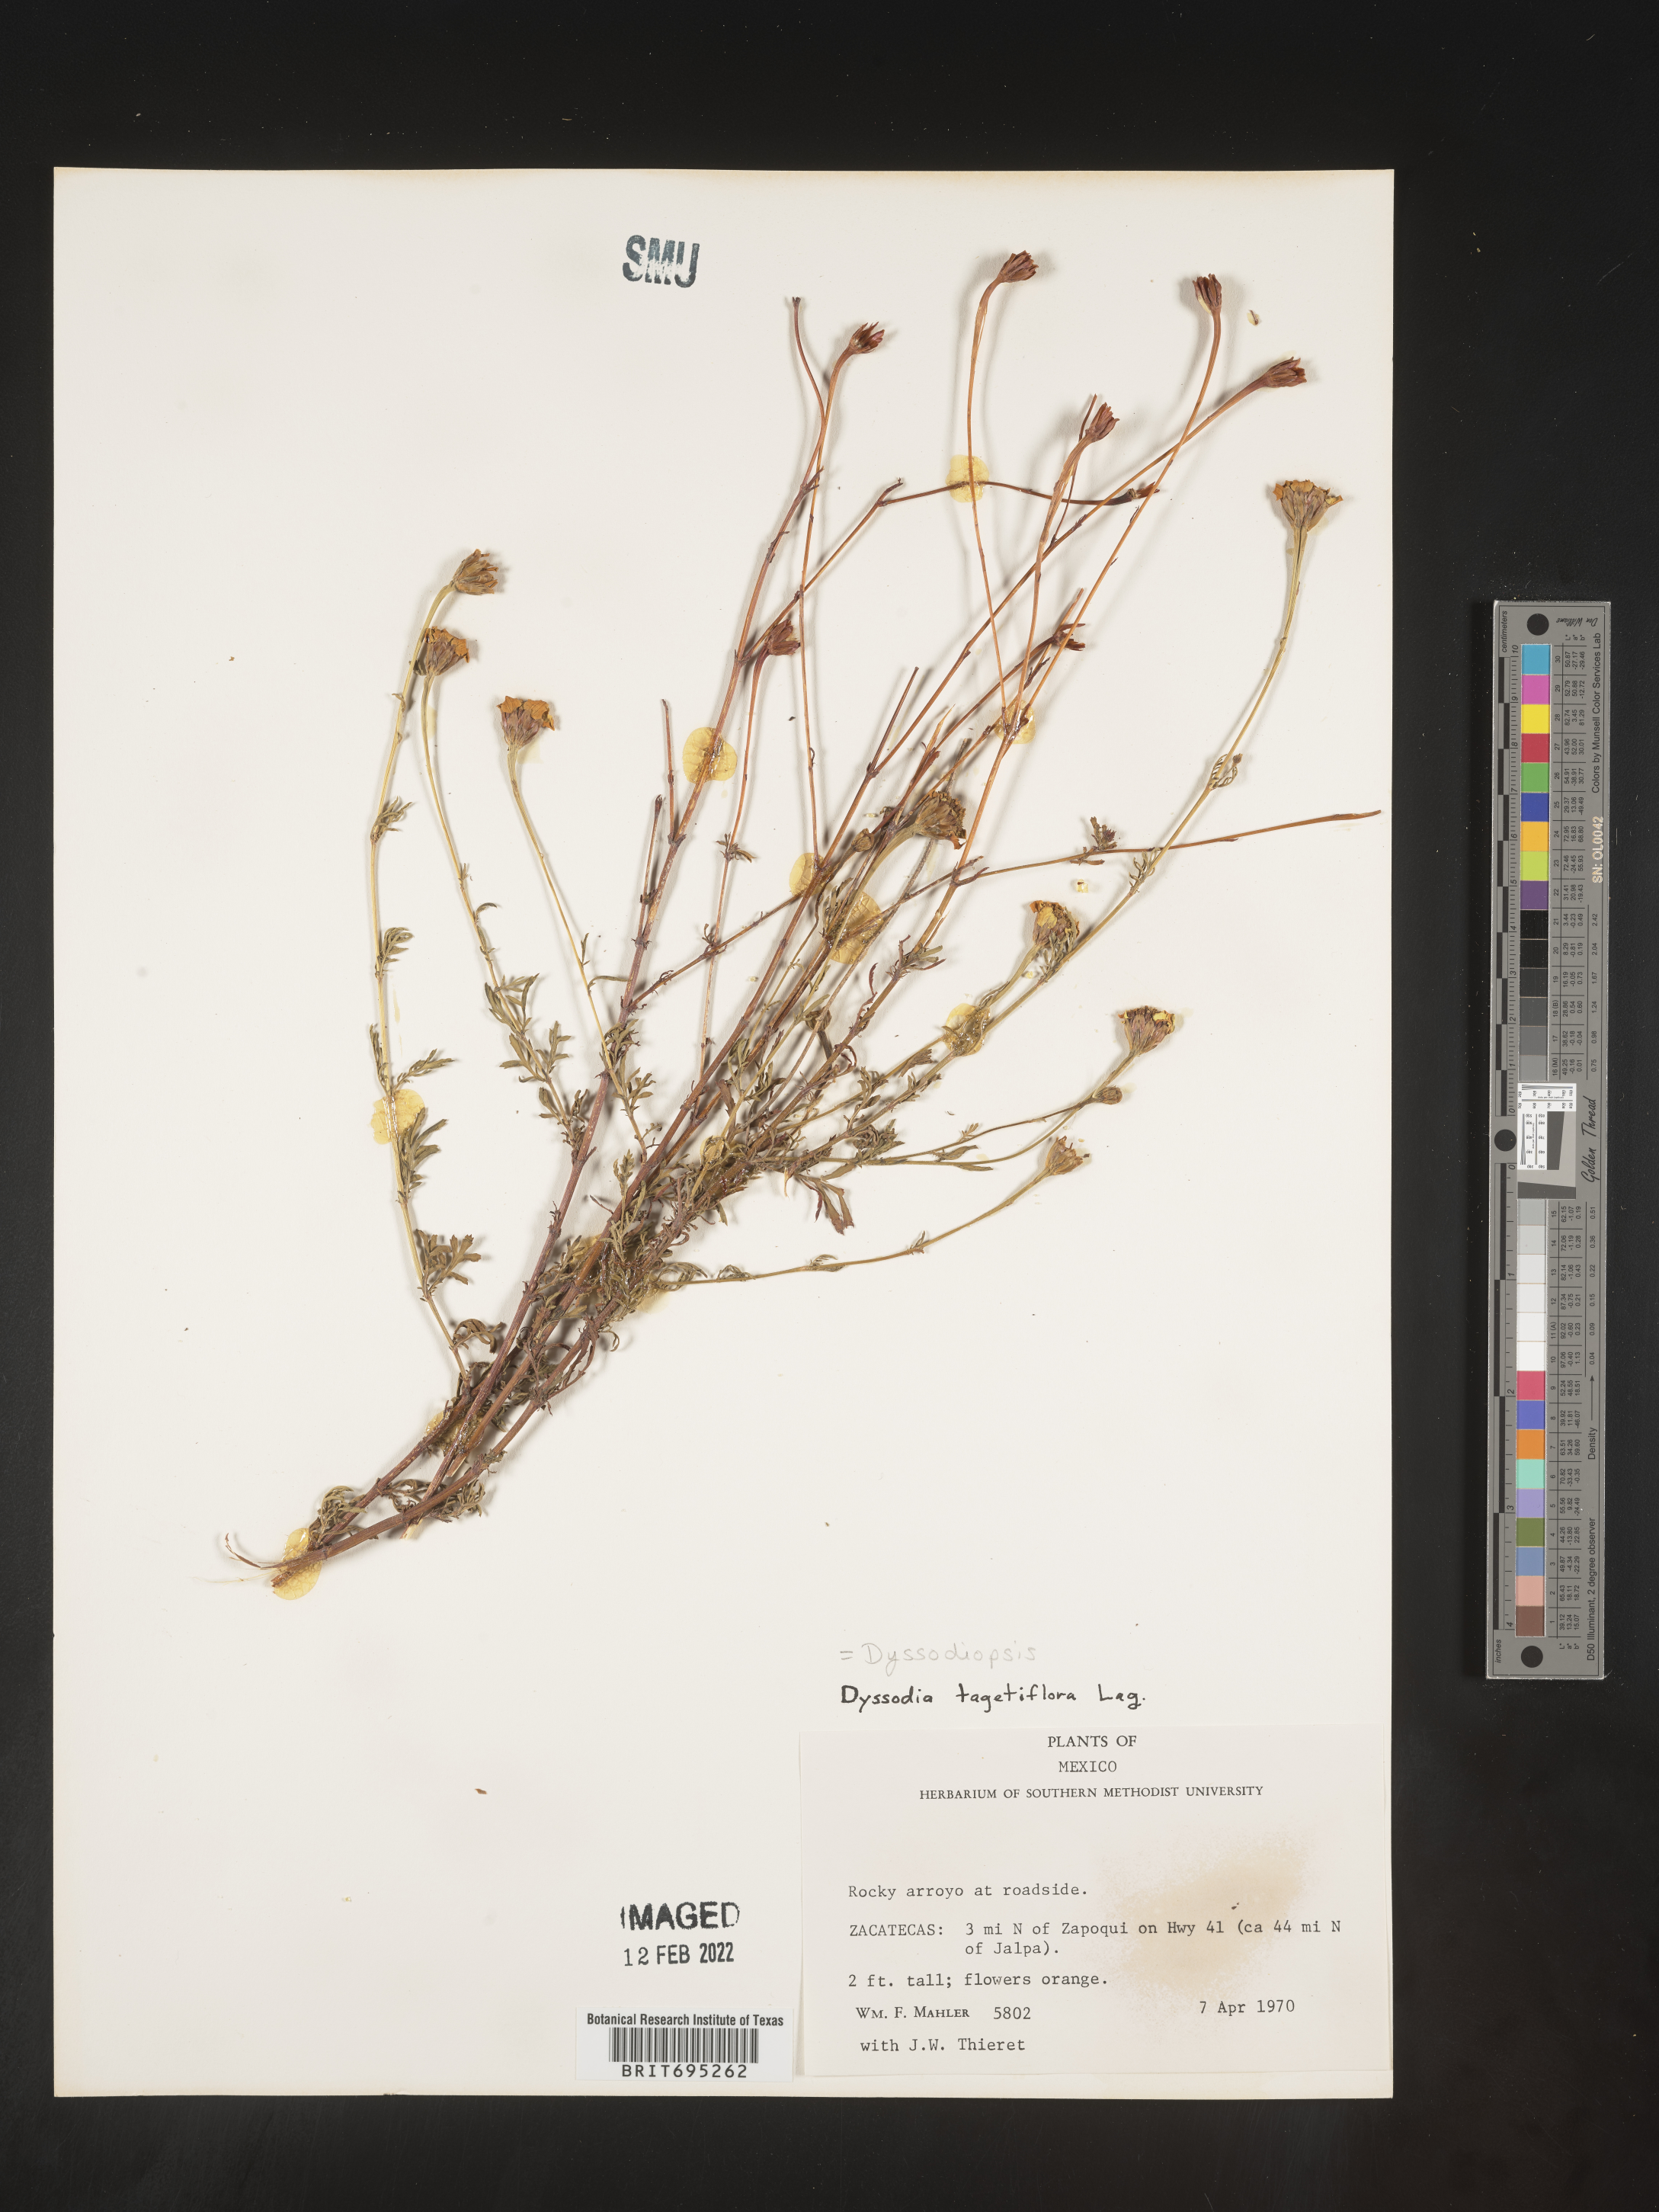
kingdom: Plantae
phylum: Tracheophyta
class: Magnoliopsida
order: Asterales
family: Asteraceae
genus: Dyssodia
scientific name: Dyssodia
